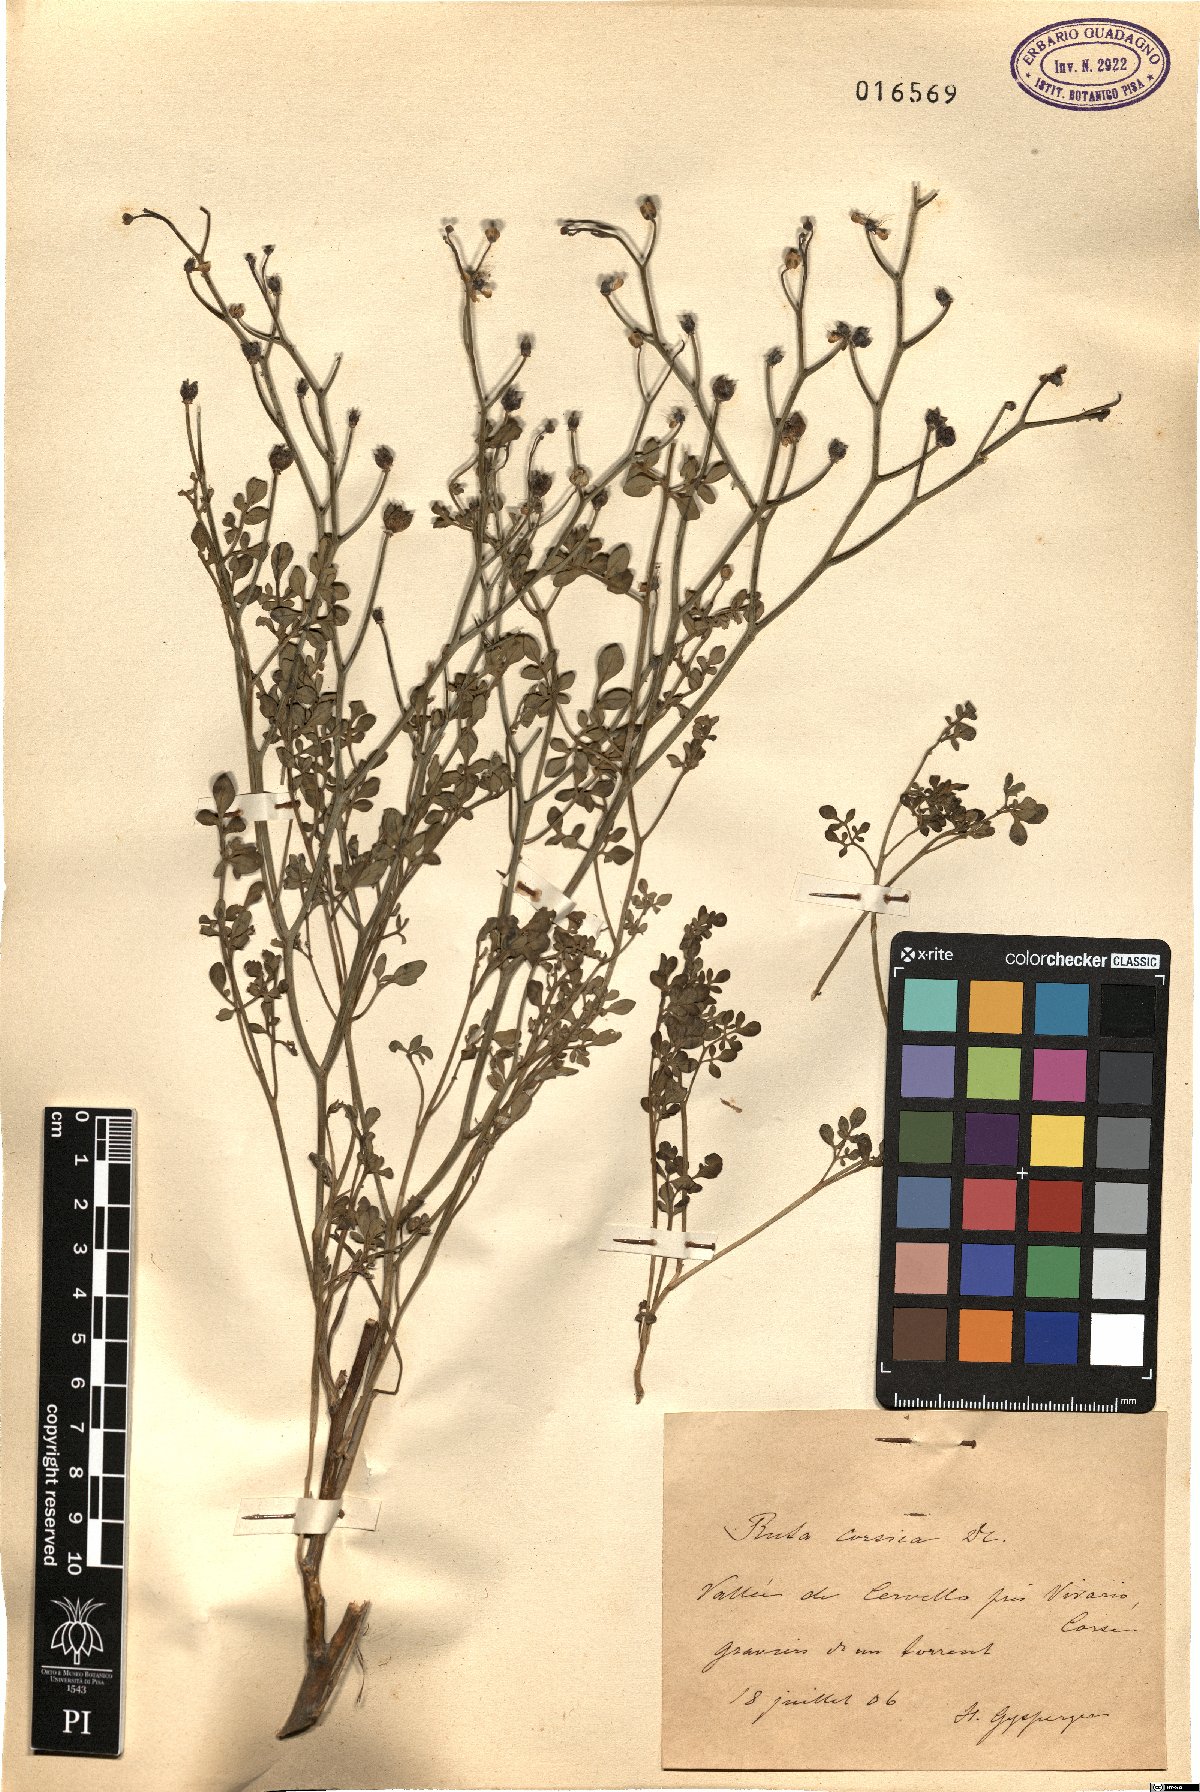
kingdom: Plantae
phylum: Tracheophyta
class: Magnoliopsida
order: Sapindales
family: Rutaceae
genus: Ruta
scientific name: Ruta corsica
